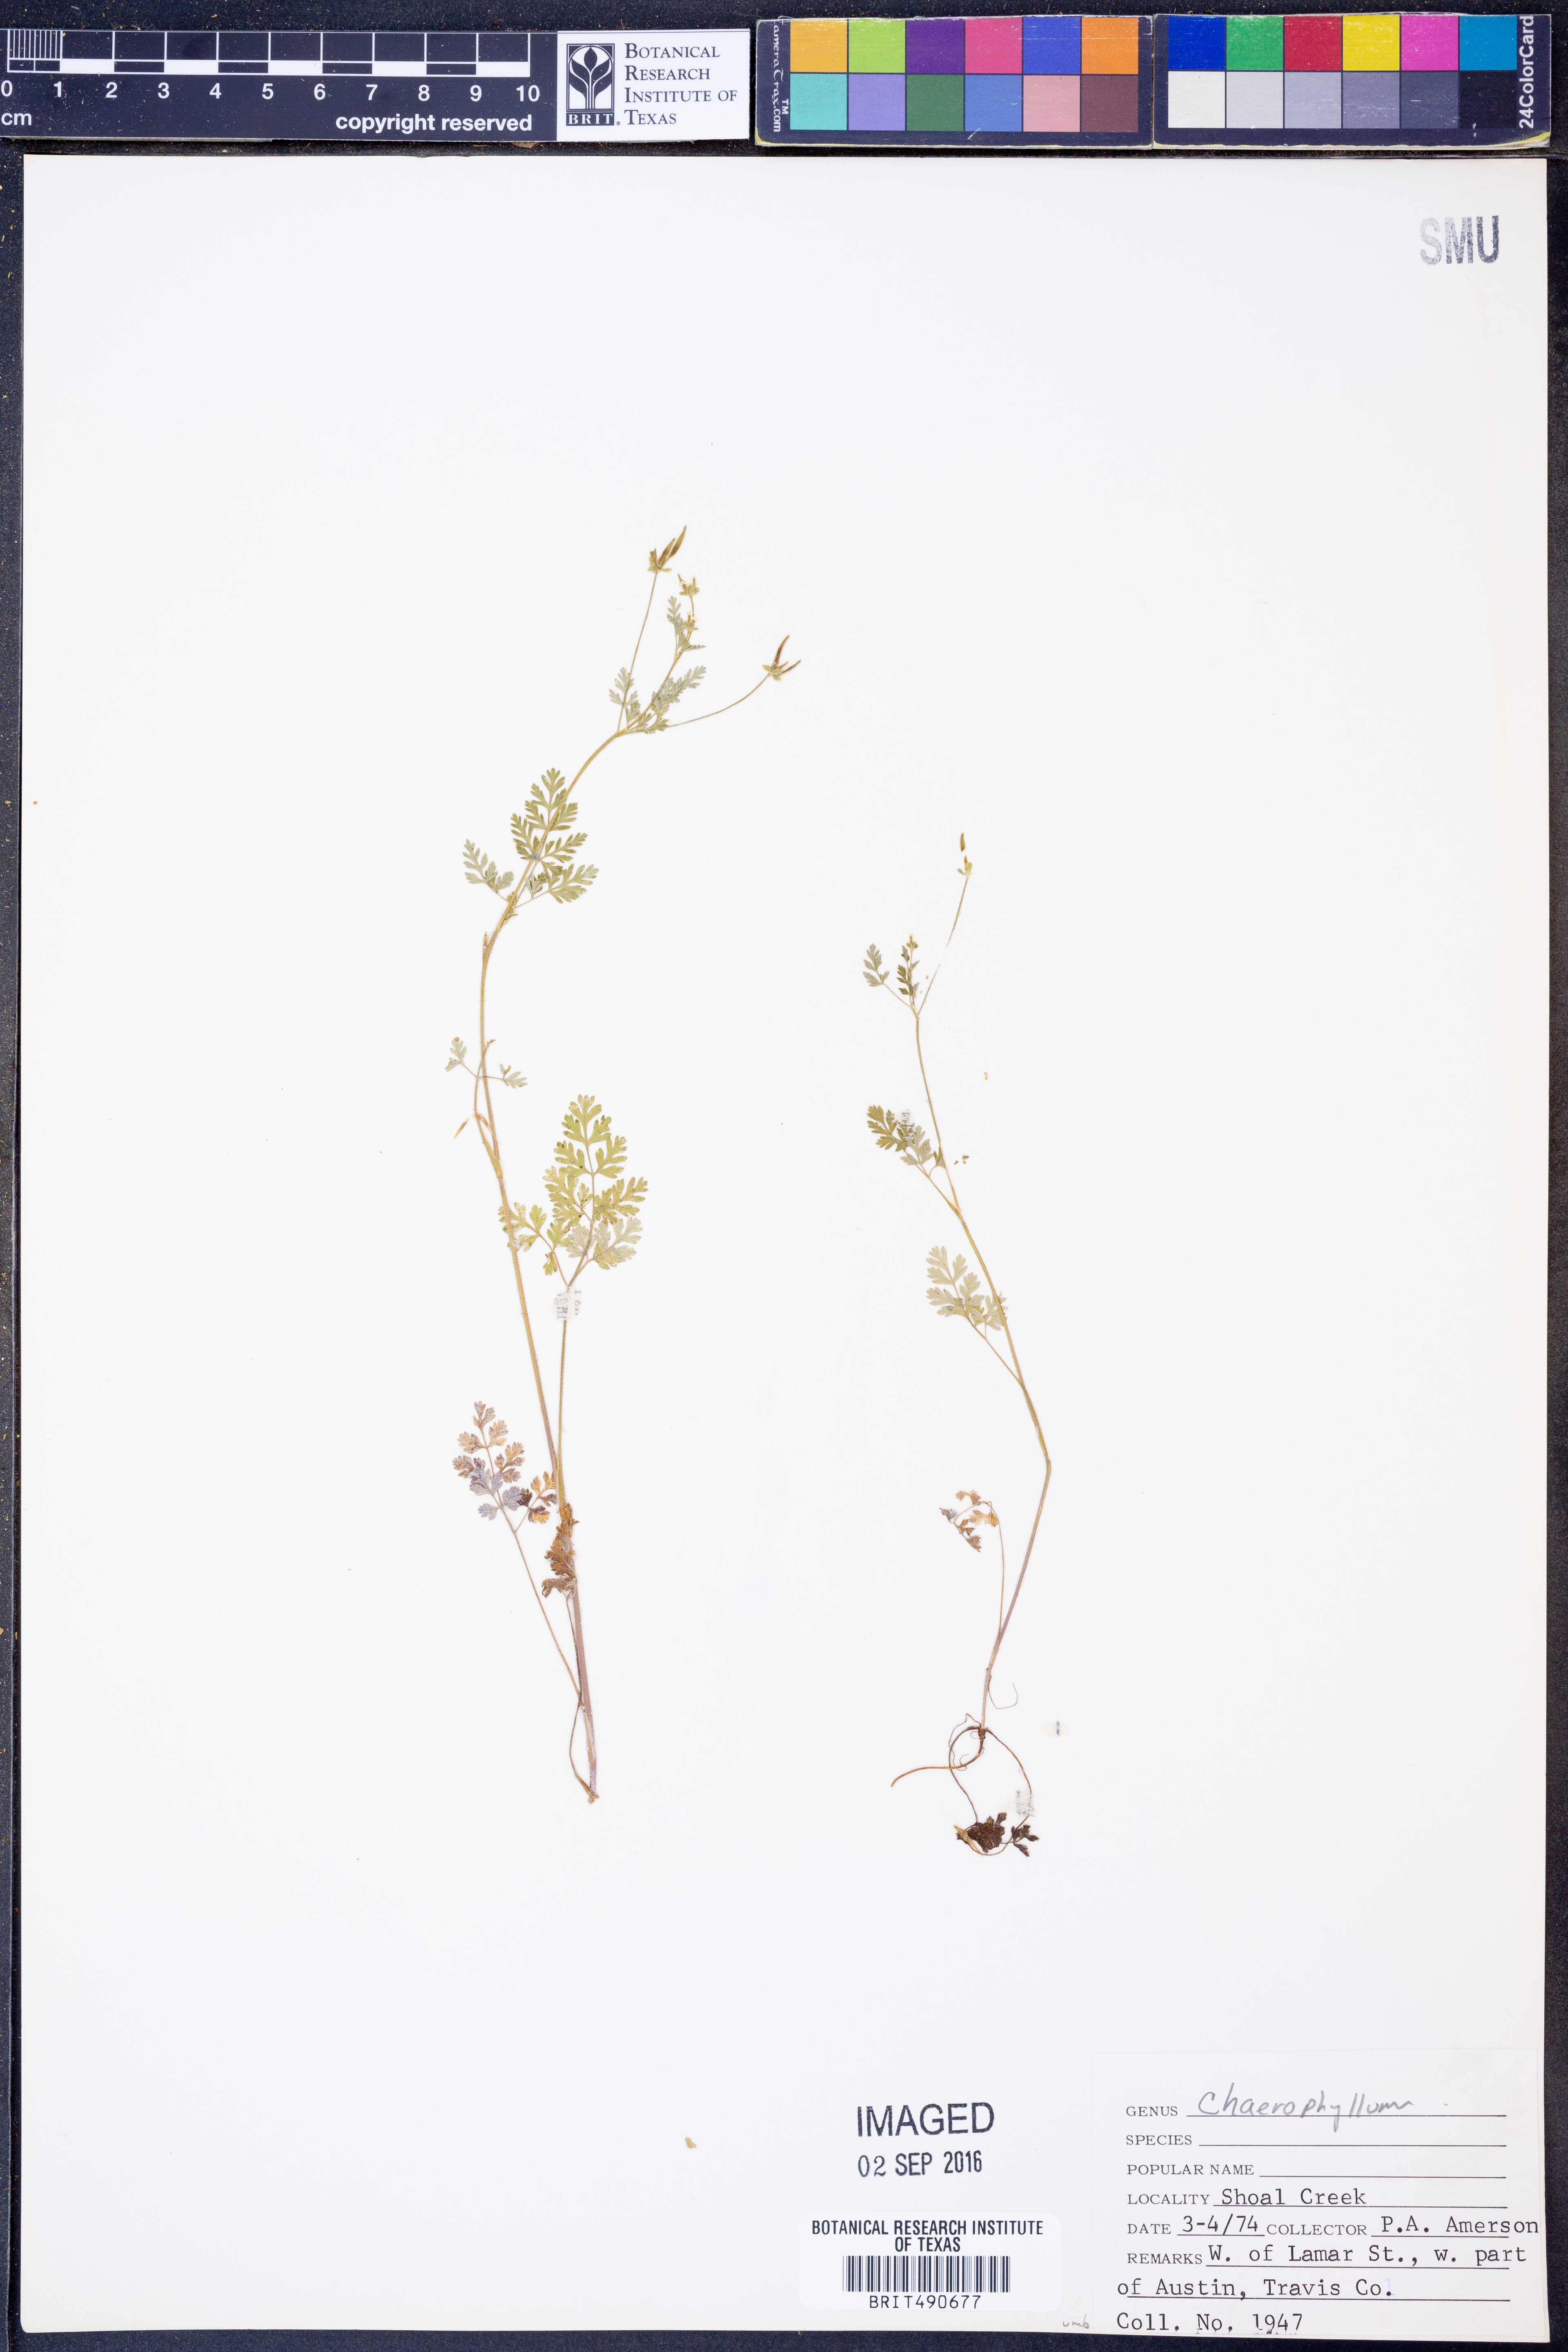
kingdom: Plantae
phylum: Tracheophyta
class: Magnoliopsida
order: Apiales
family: Apiaceae
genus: Chaerophyllum
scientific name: Chaerophyllum
